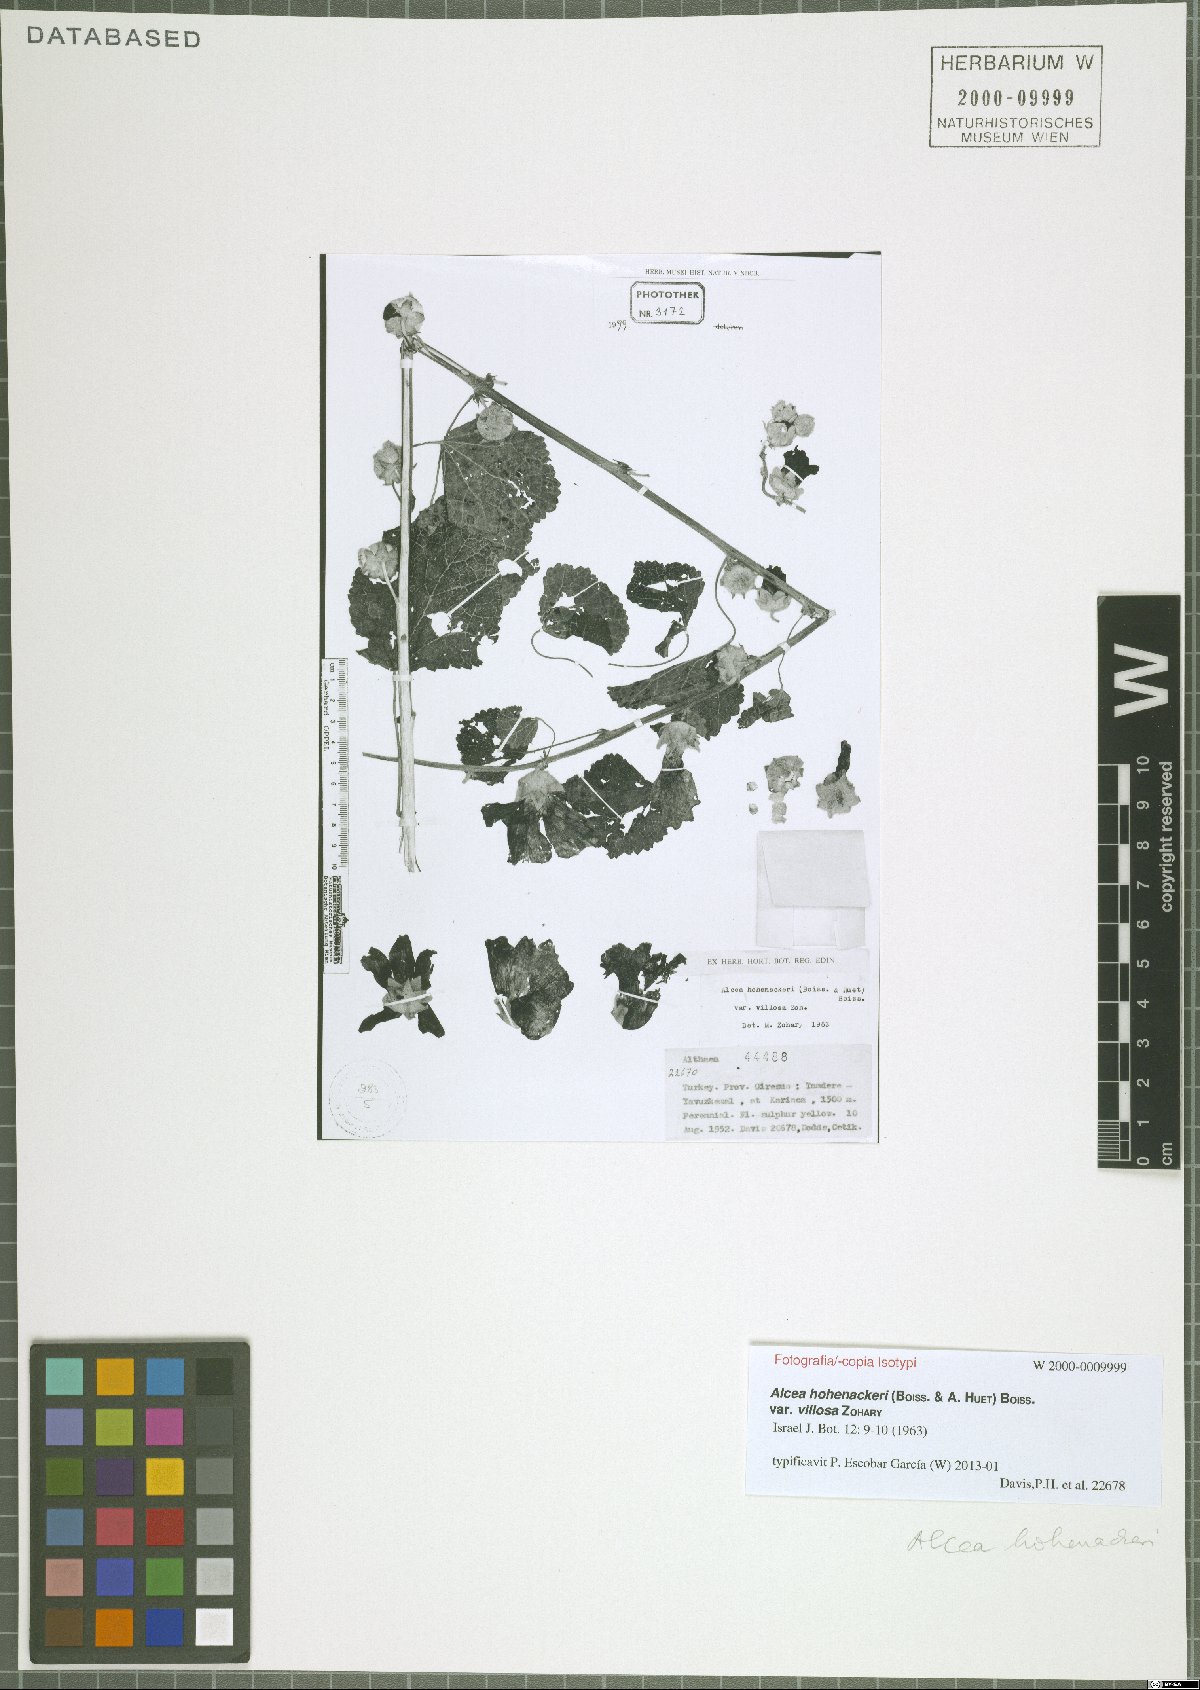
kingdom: Plantae
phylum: Tracheophyta
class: Magnoliopsida
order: Malvales
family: Malvaceae
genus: Alcea
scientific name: Alcea kurdica
